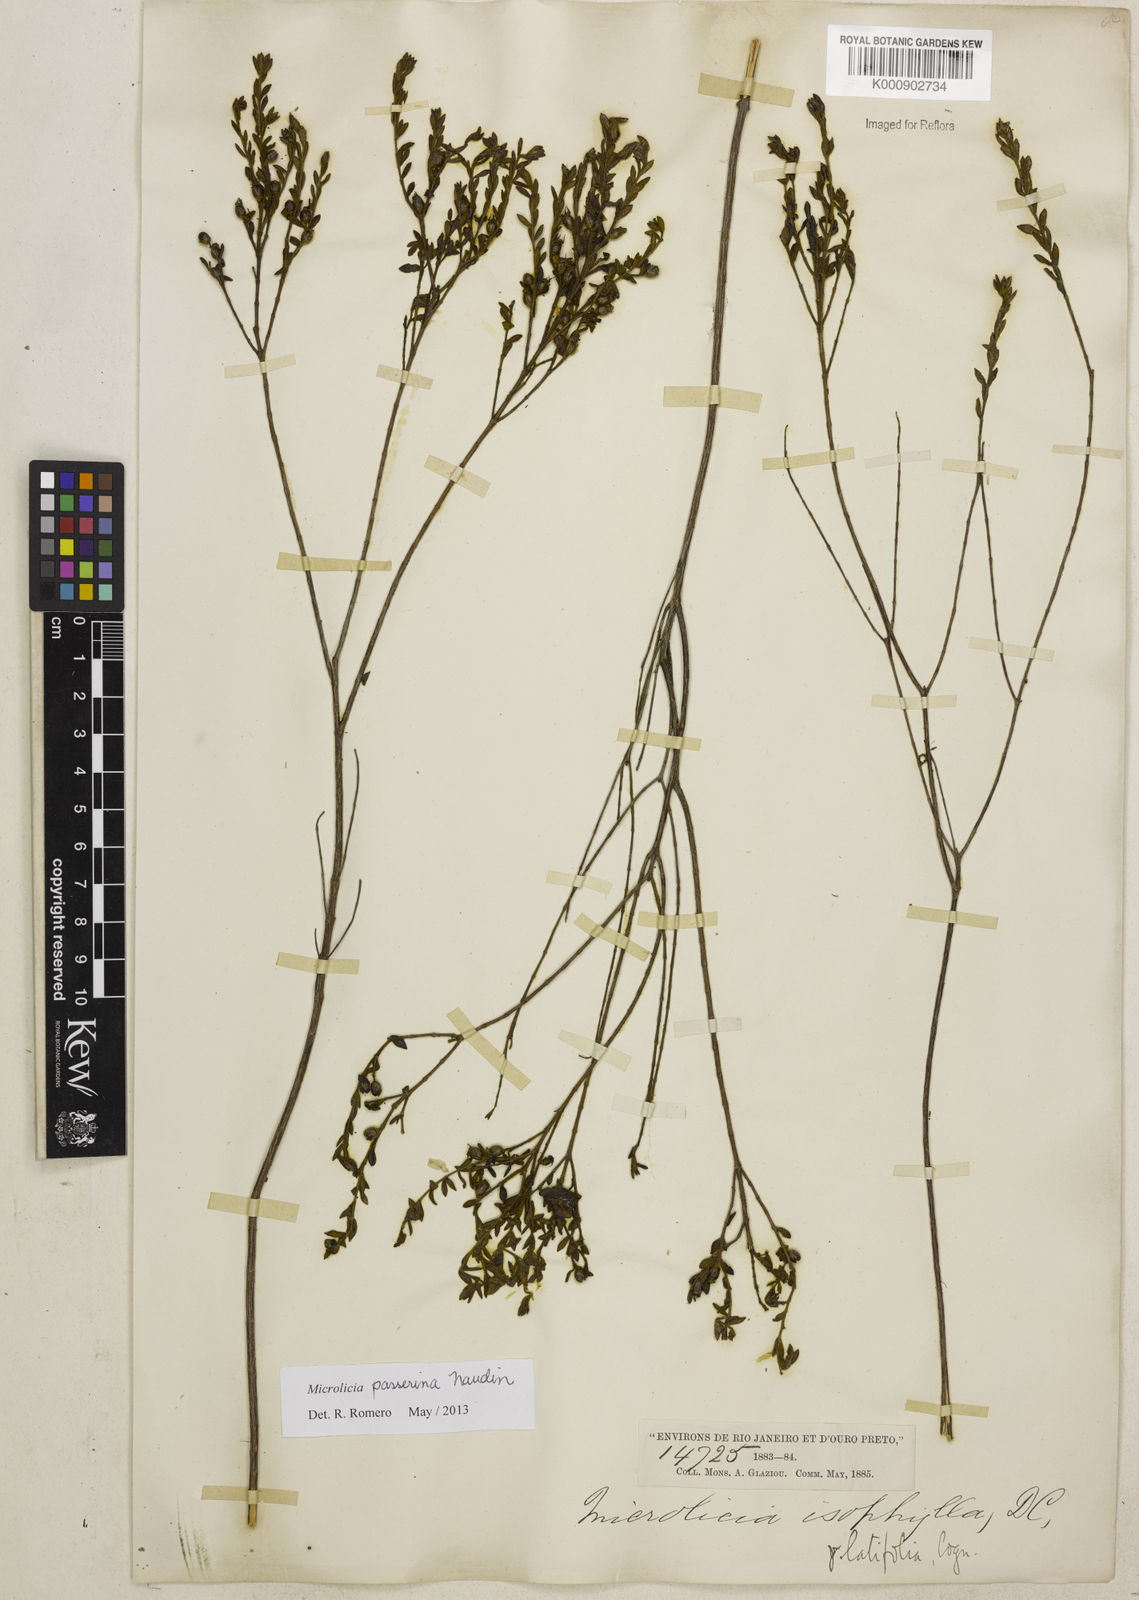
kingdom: Plantae
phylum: Tracheophyta
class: Magnoliopsida
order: Myrtales
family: Melastomataceae
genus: Microlicia
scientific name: Microlicia passerina
